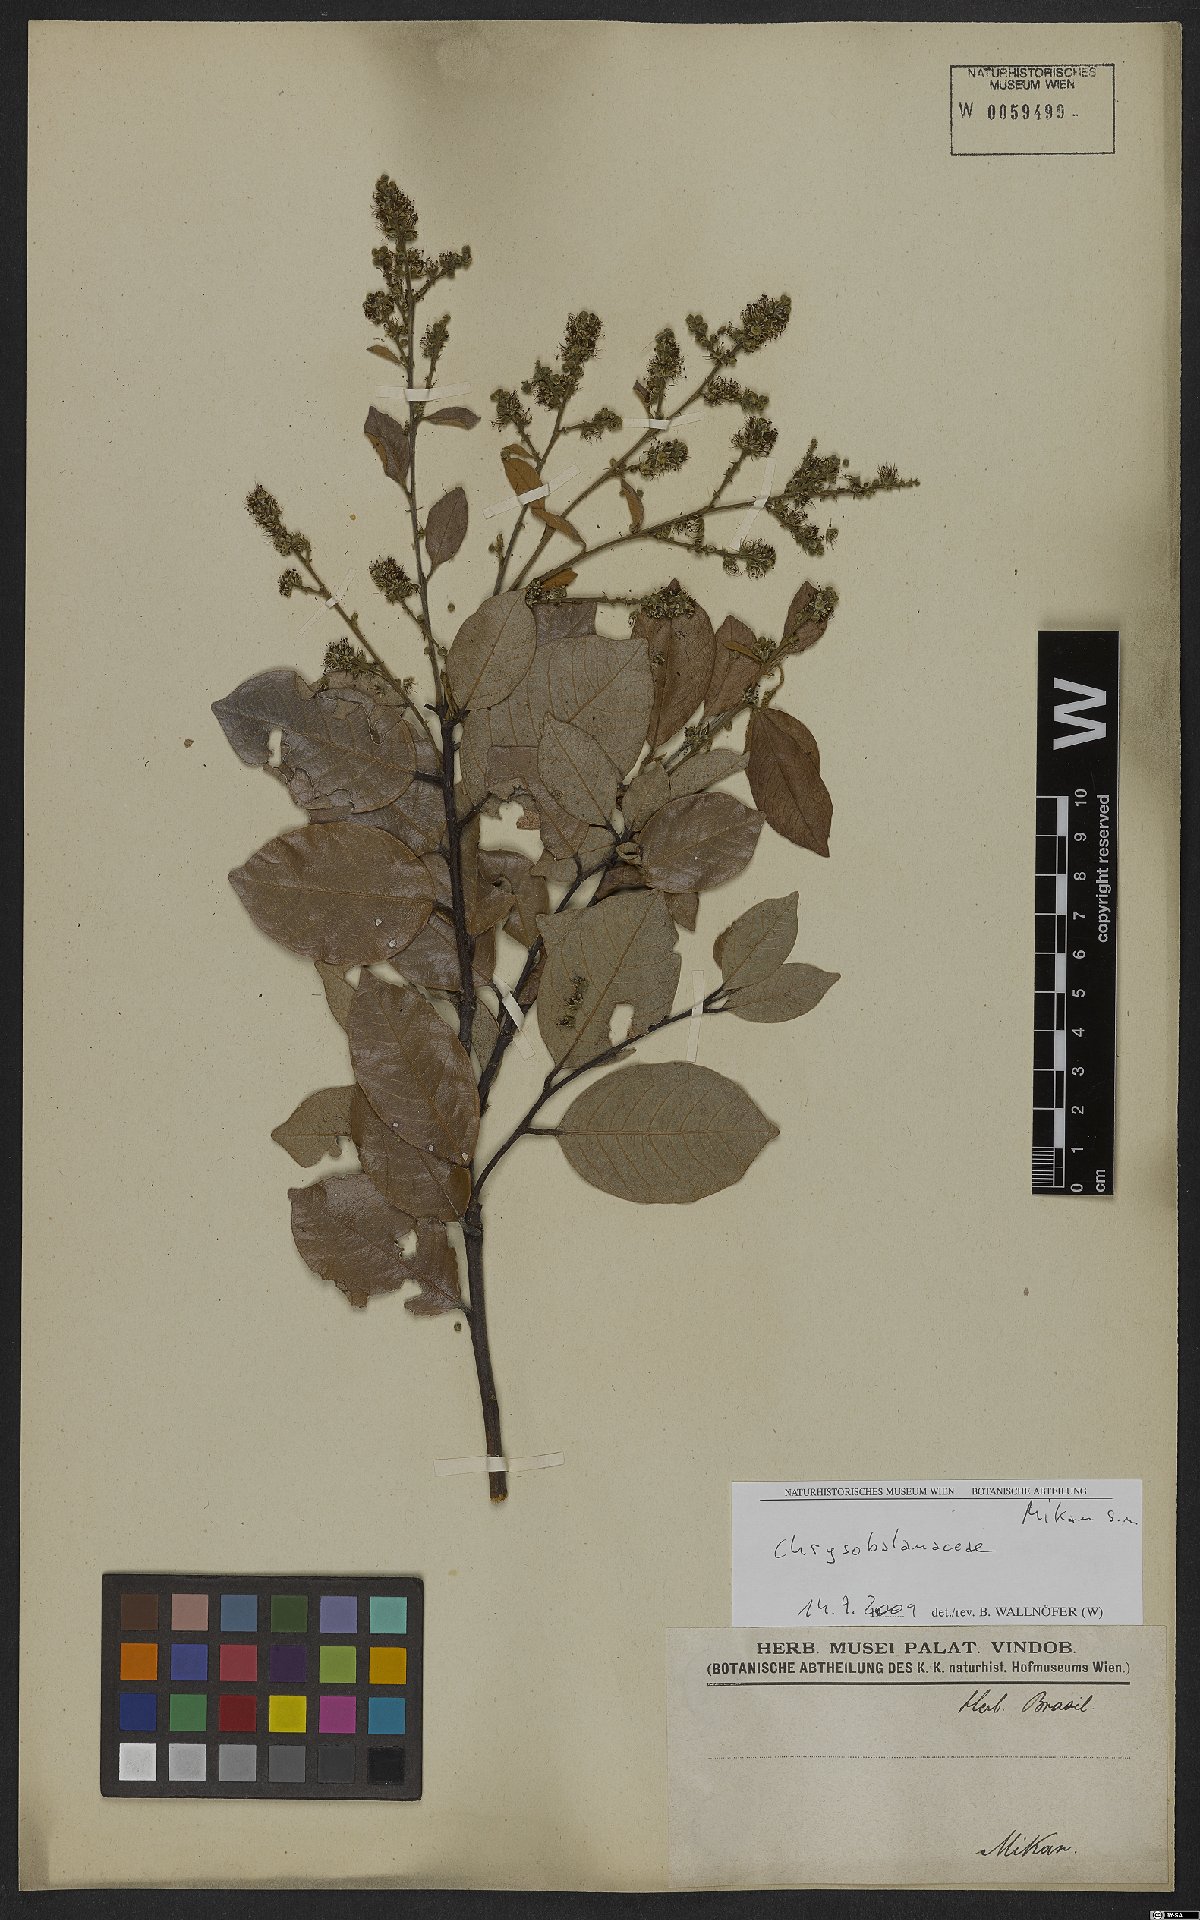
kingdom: Plantae
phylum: Tracheophyta
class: Magnoliopsida
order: Malpighiales
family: Chrysobalanaceae
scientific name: Chrysobalanaceae
